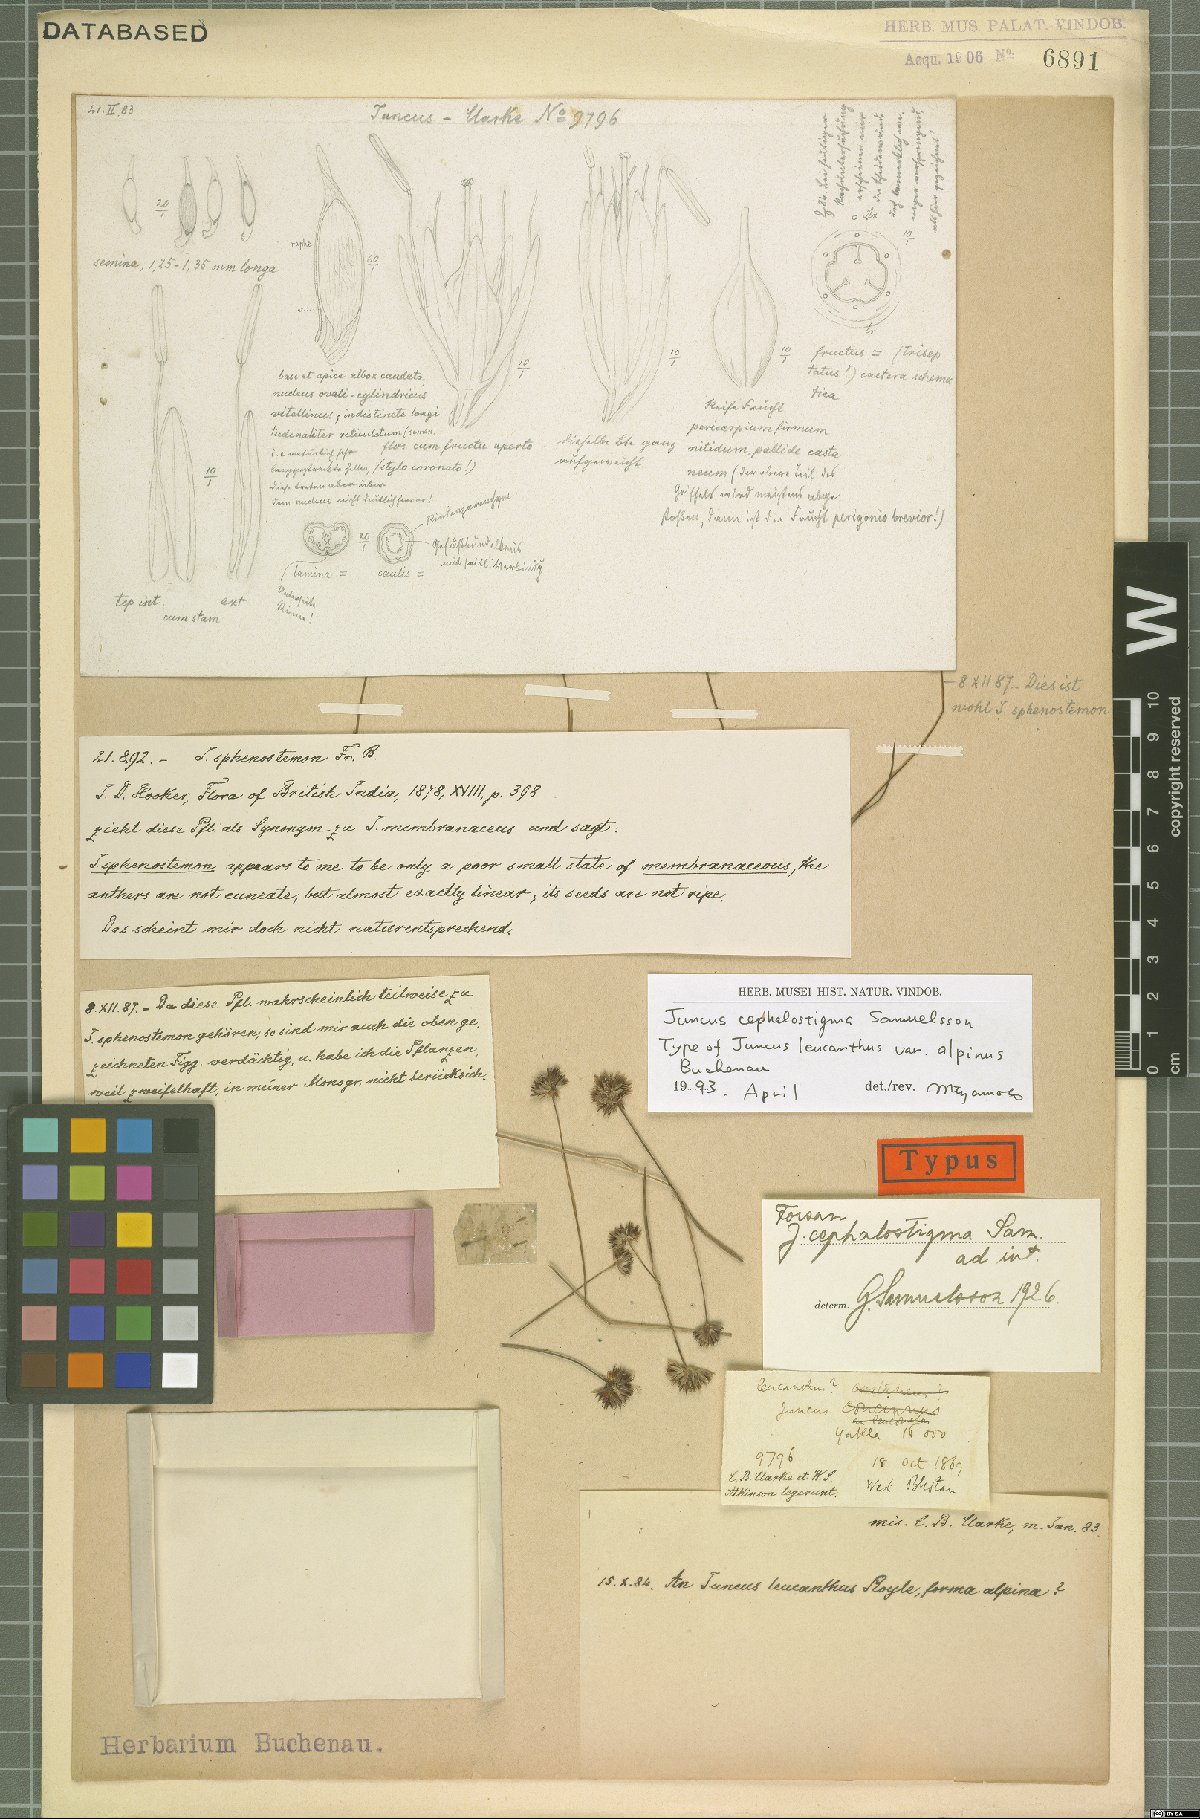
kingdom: Plantae
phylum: Tracheophyta
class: Liliopsida
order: Poales
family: Juncaceae
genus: Juncus
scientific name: Juncus cephalostigma
